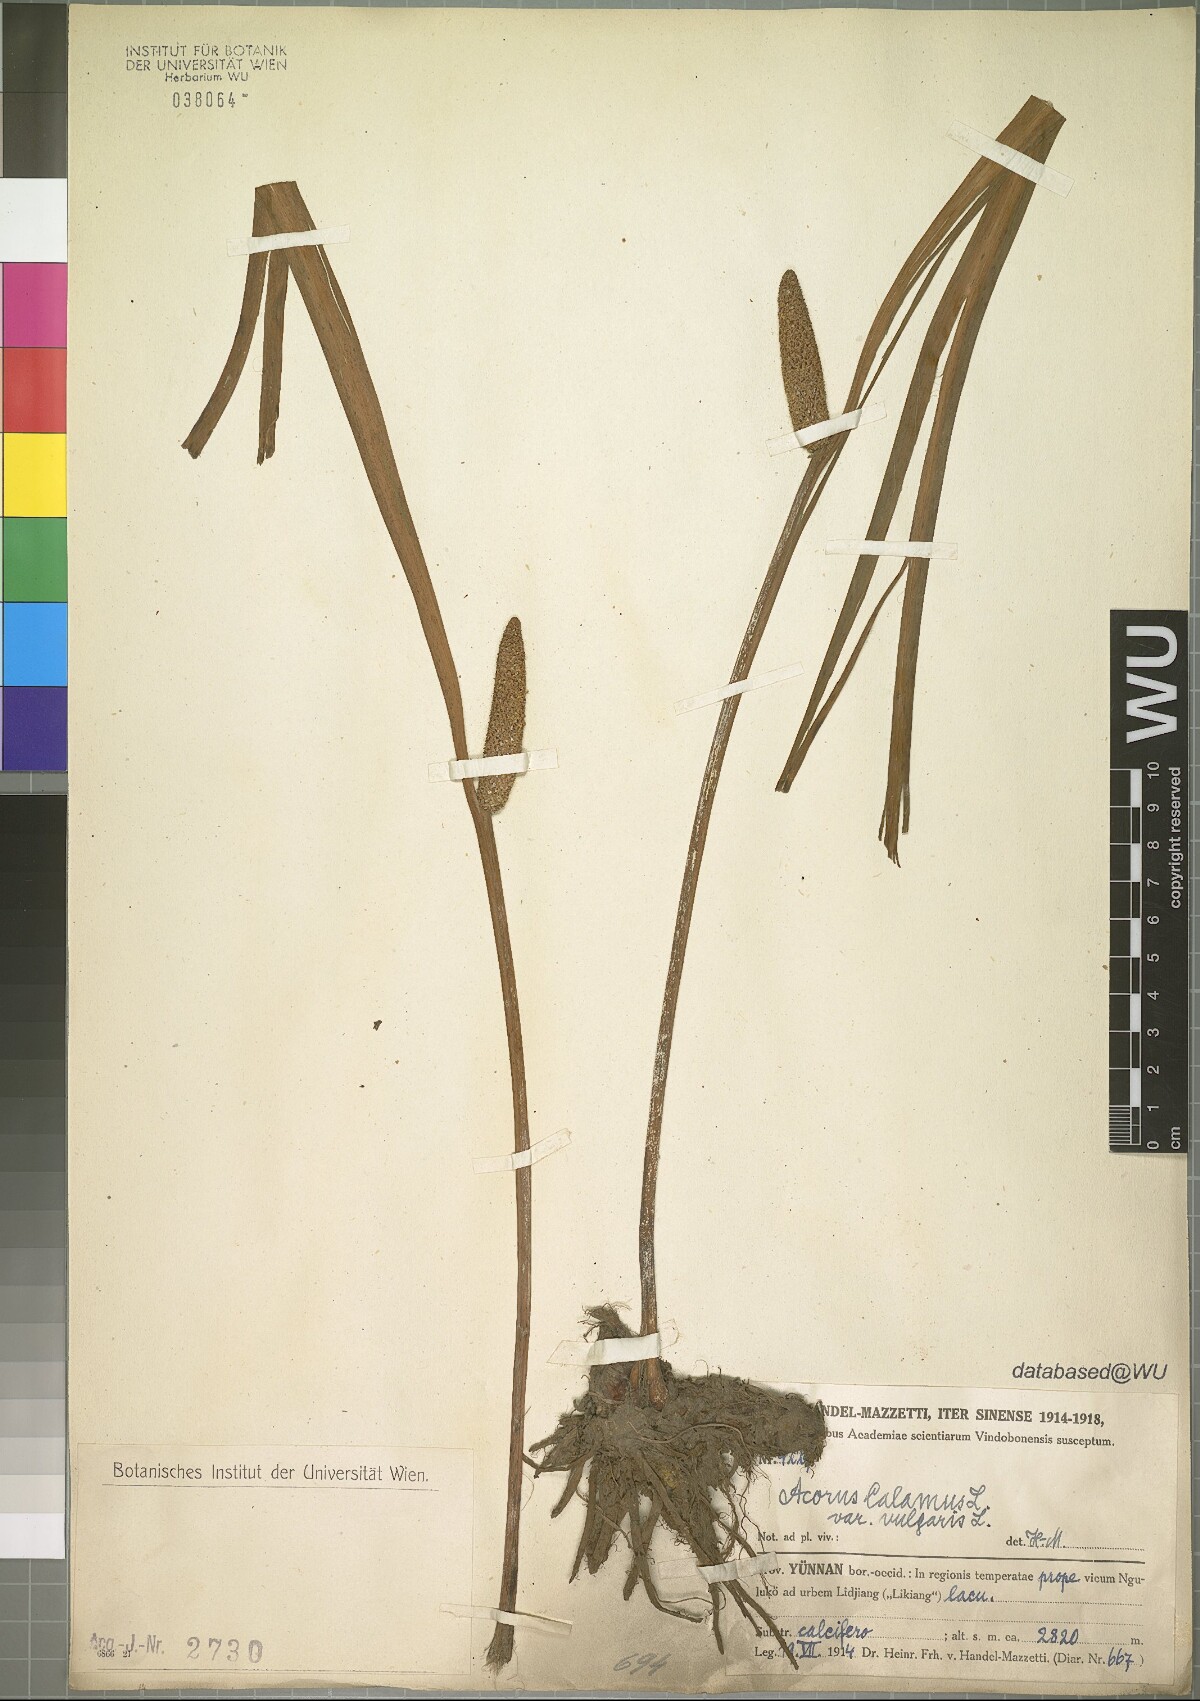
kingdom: Plantae
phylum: Tracheophyta
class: Liliopsida
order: Acorales
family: Acoraceae
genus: Acorus
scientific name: Acorus calamus
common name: Sweet-flag
